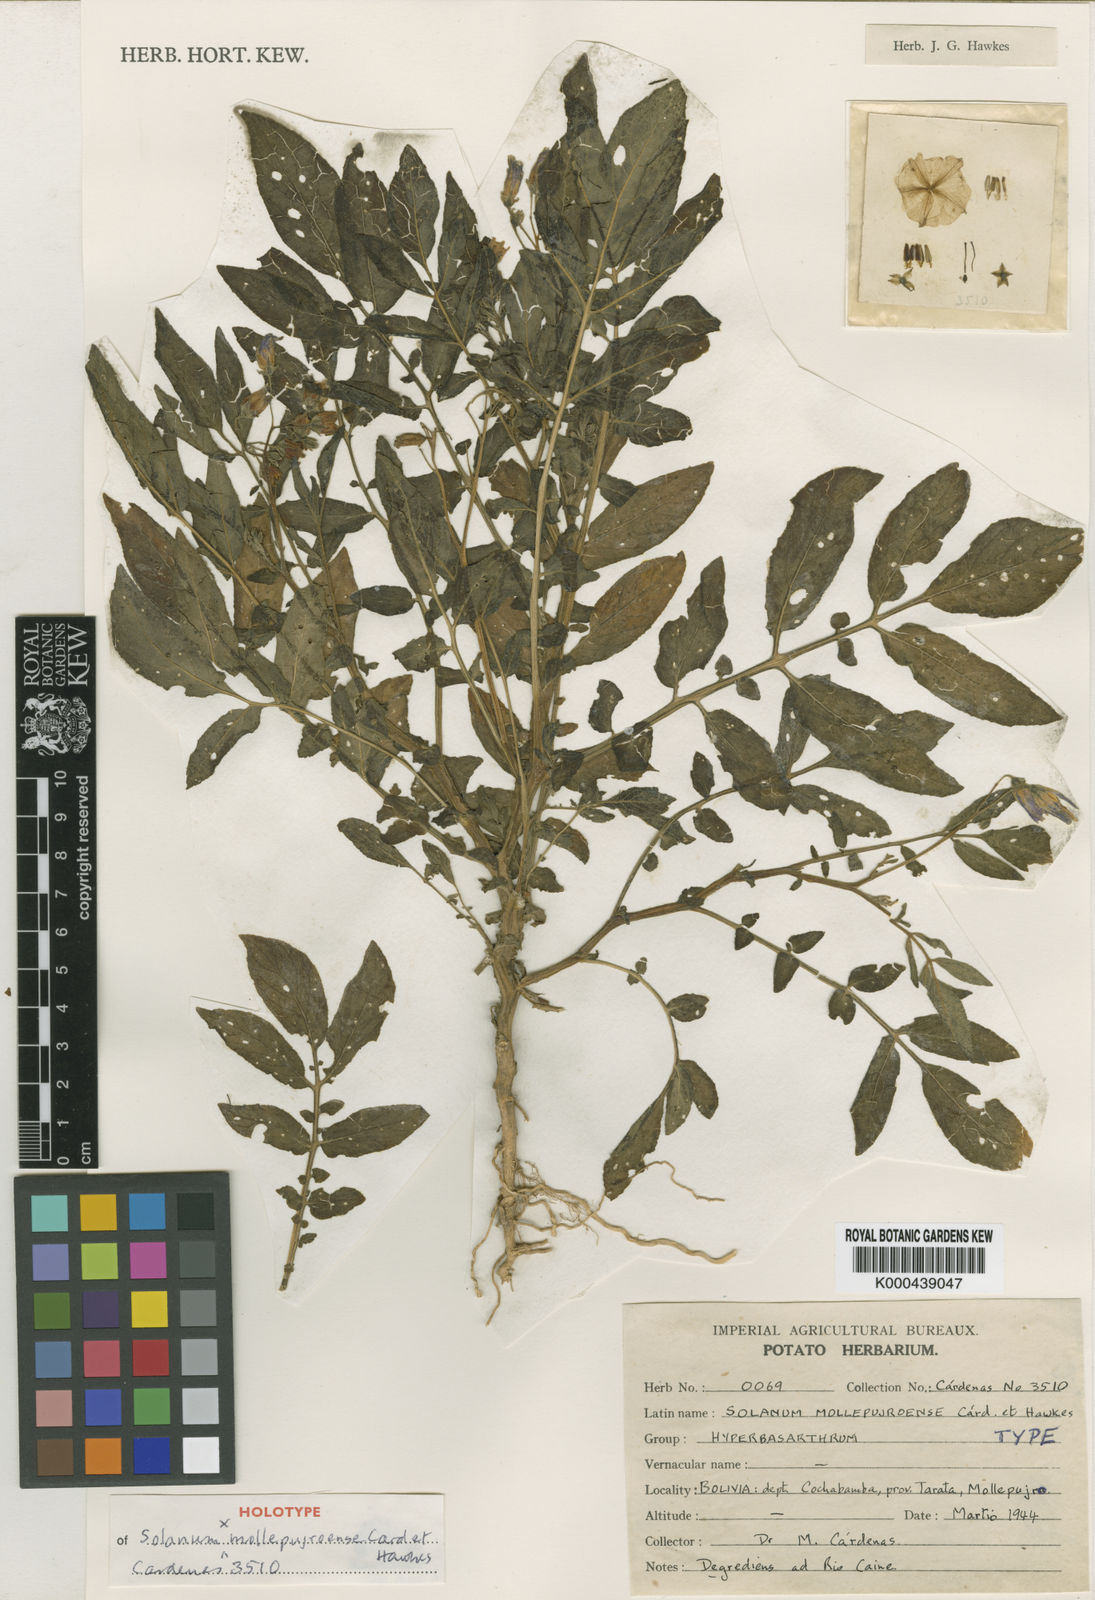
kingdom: Plantae
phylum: Tracheophyta
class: Magnoliopsida
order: Solanales
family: Solanaceae
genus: Solanum
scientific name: Solanum
